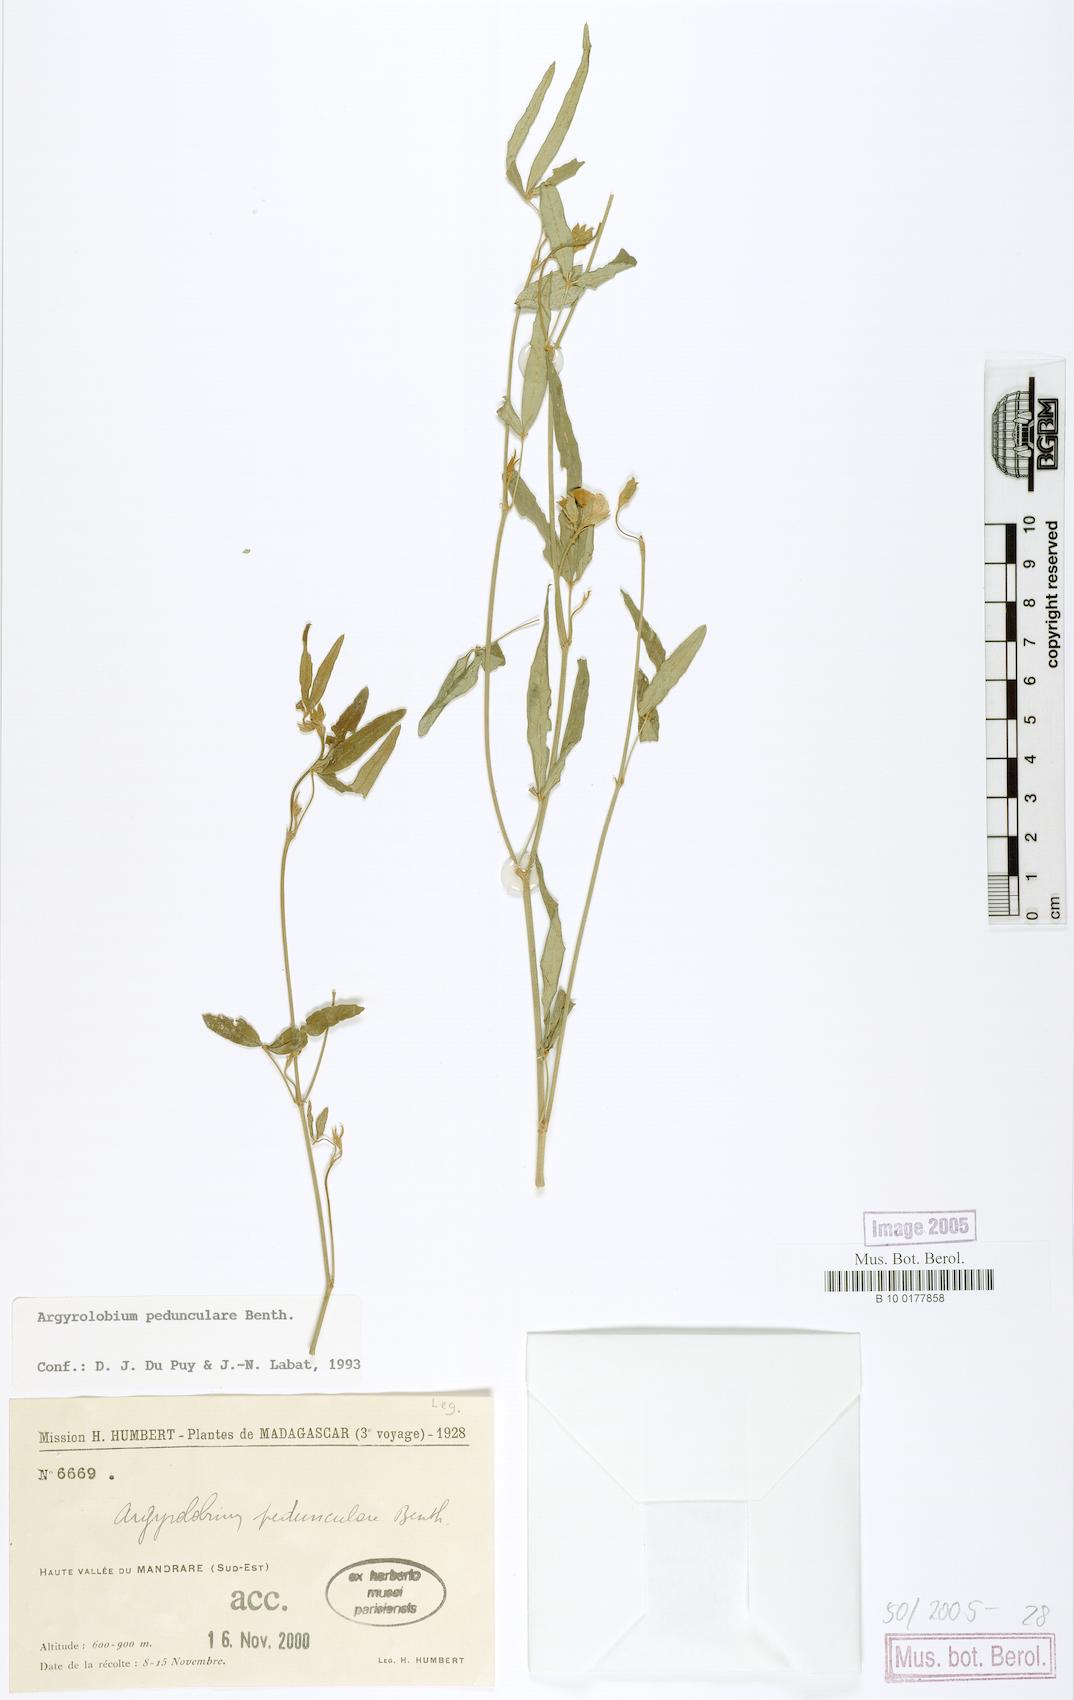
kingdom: Plantae
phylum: Tracheophyta
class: Magnoliopsida
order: Fabales
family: Fabaceae
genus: Argyrolobium
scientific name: Argyrolobium pedunculare
